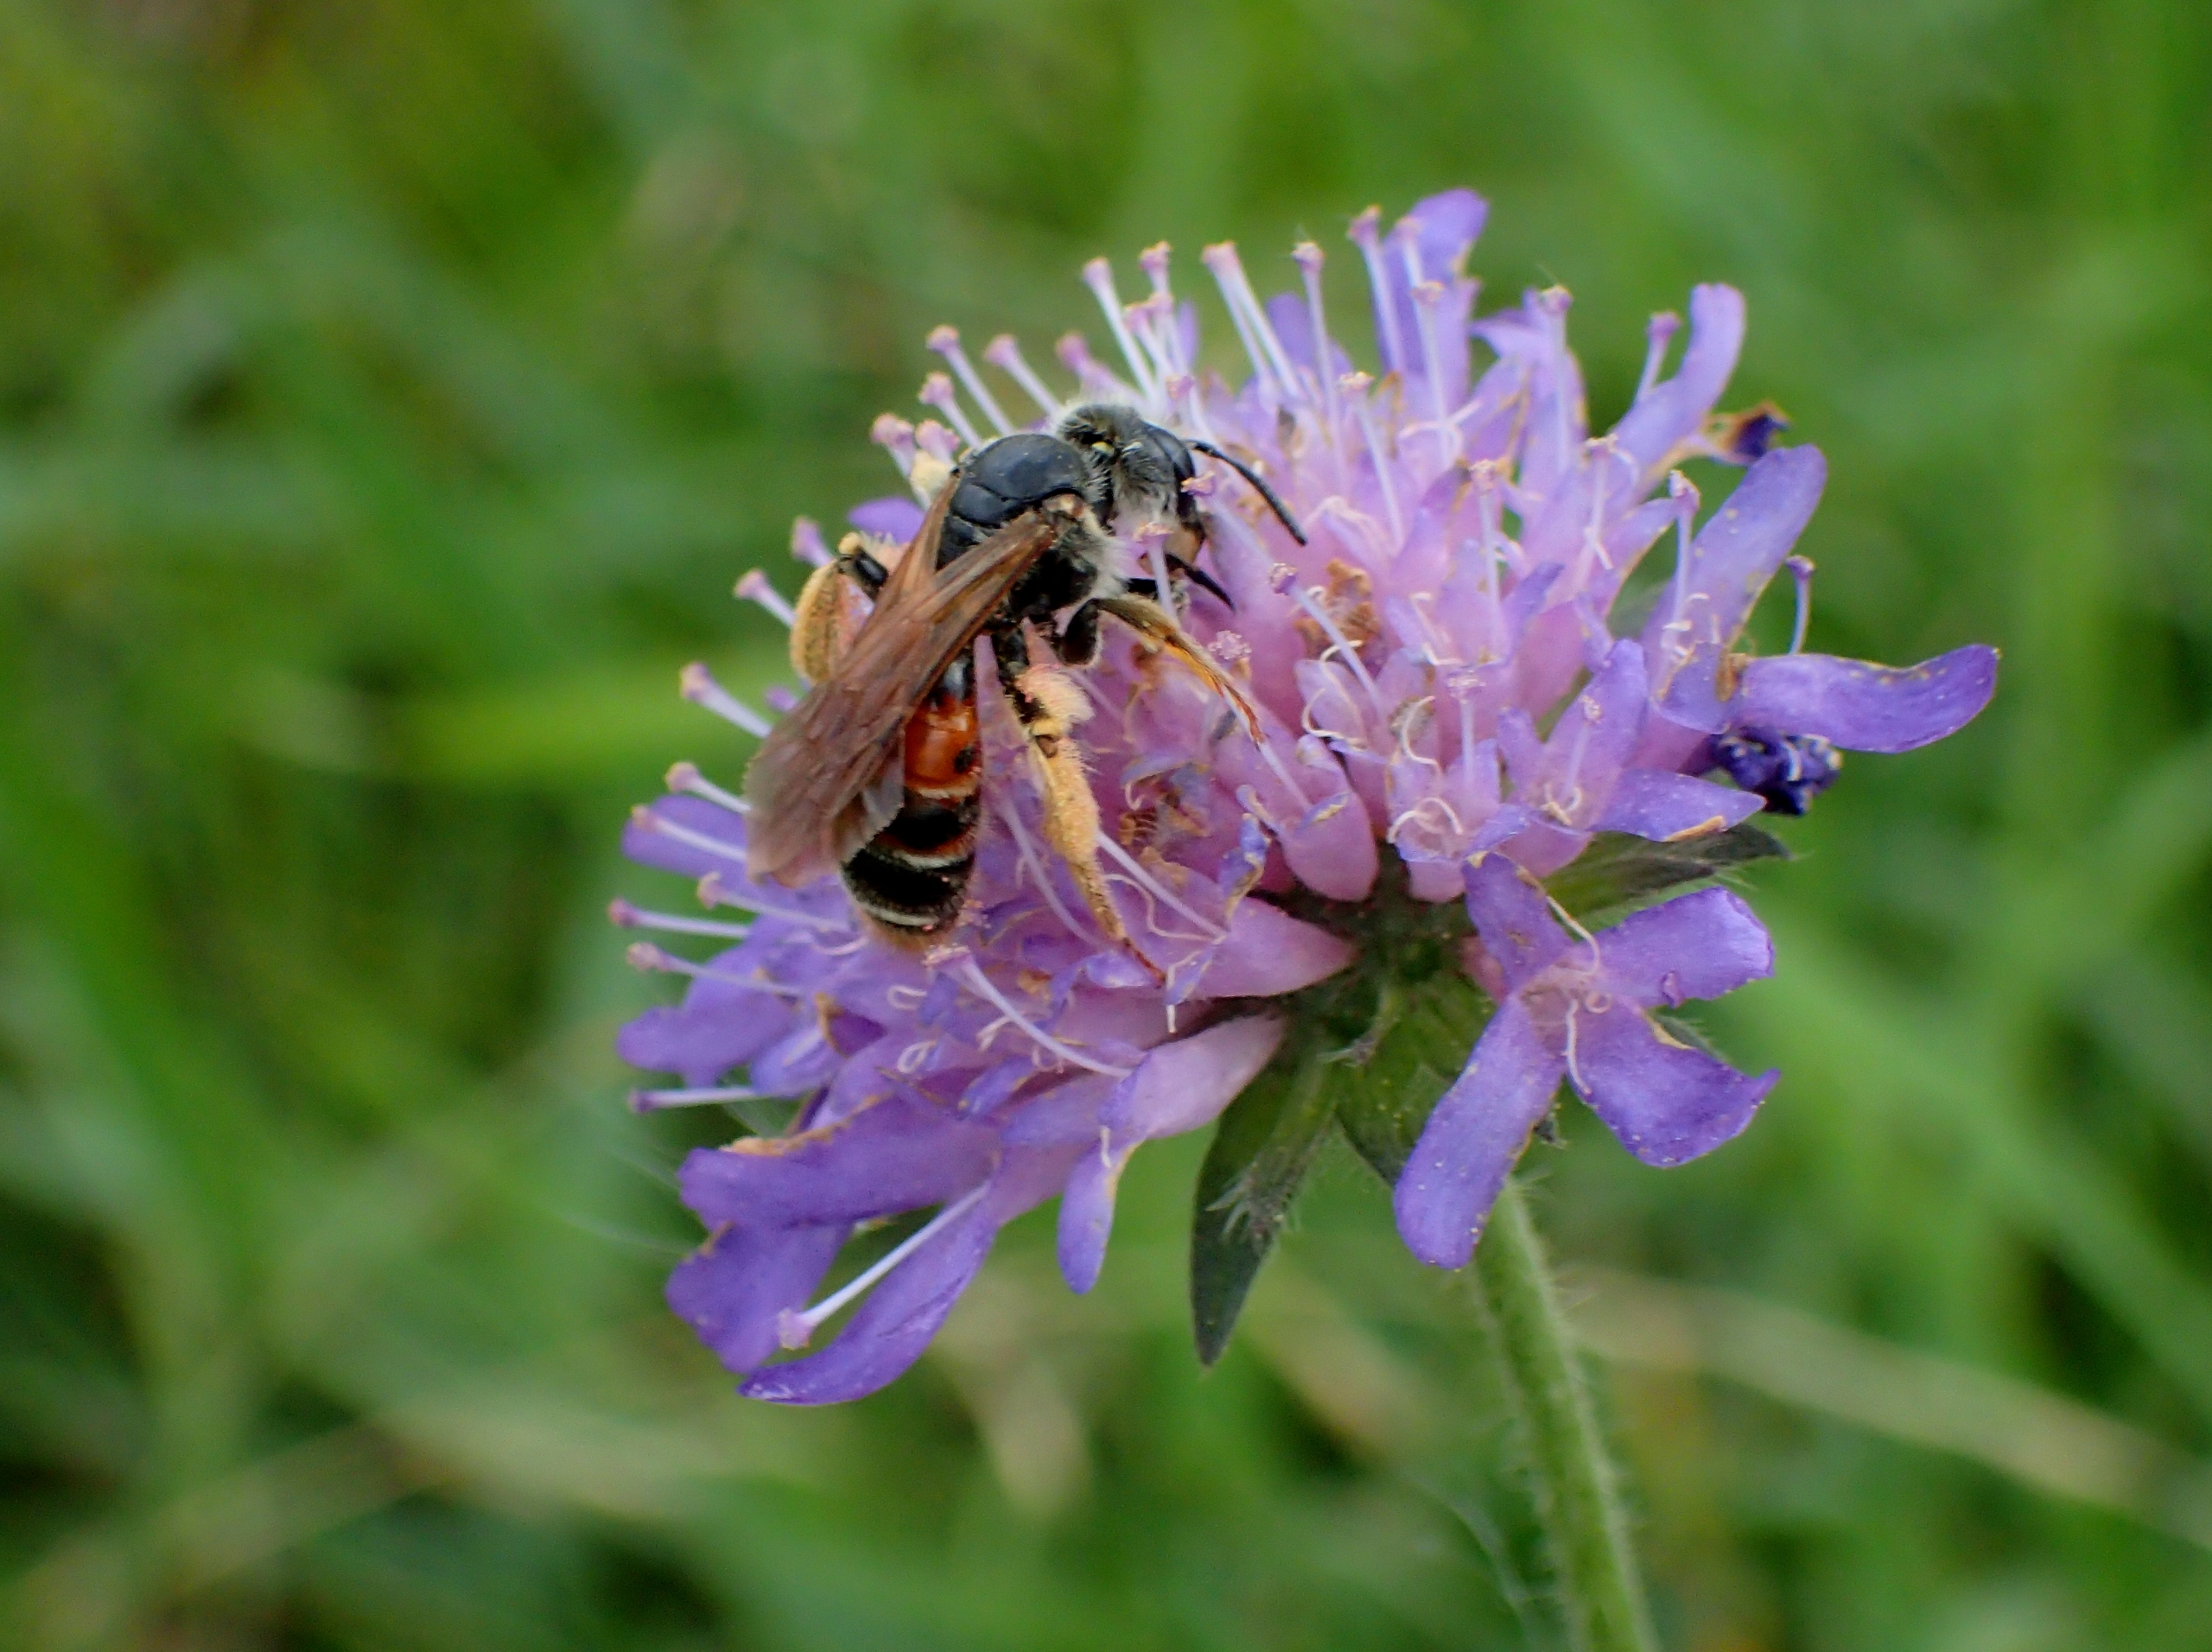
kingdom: Animalia
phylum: Arthropoda
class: Insecta
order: Hymenoptera
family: Andrenidae
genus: Andrena
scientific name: Andrena hattorfiana
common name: Blåhatjordbi
